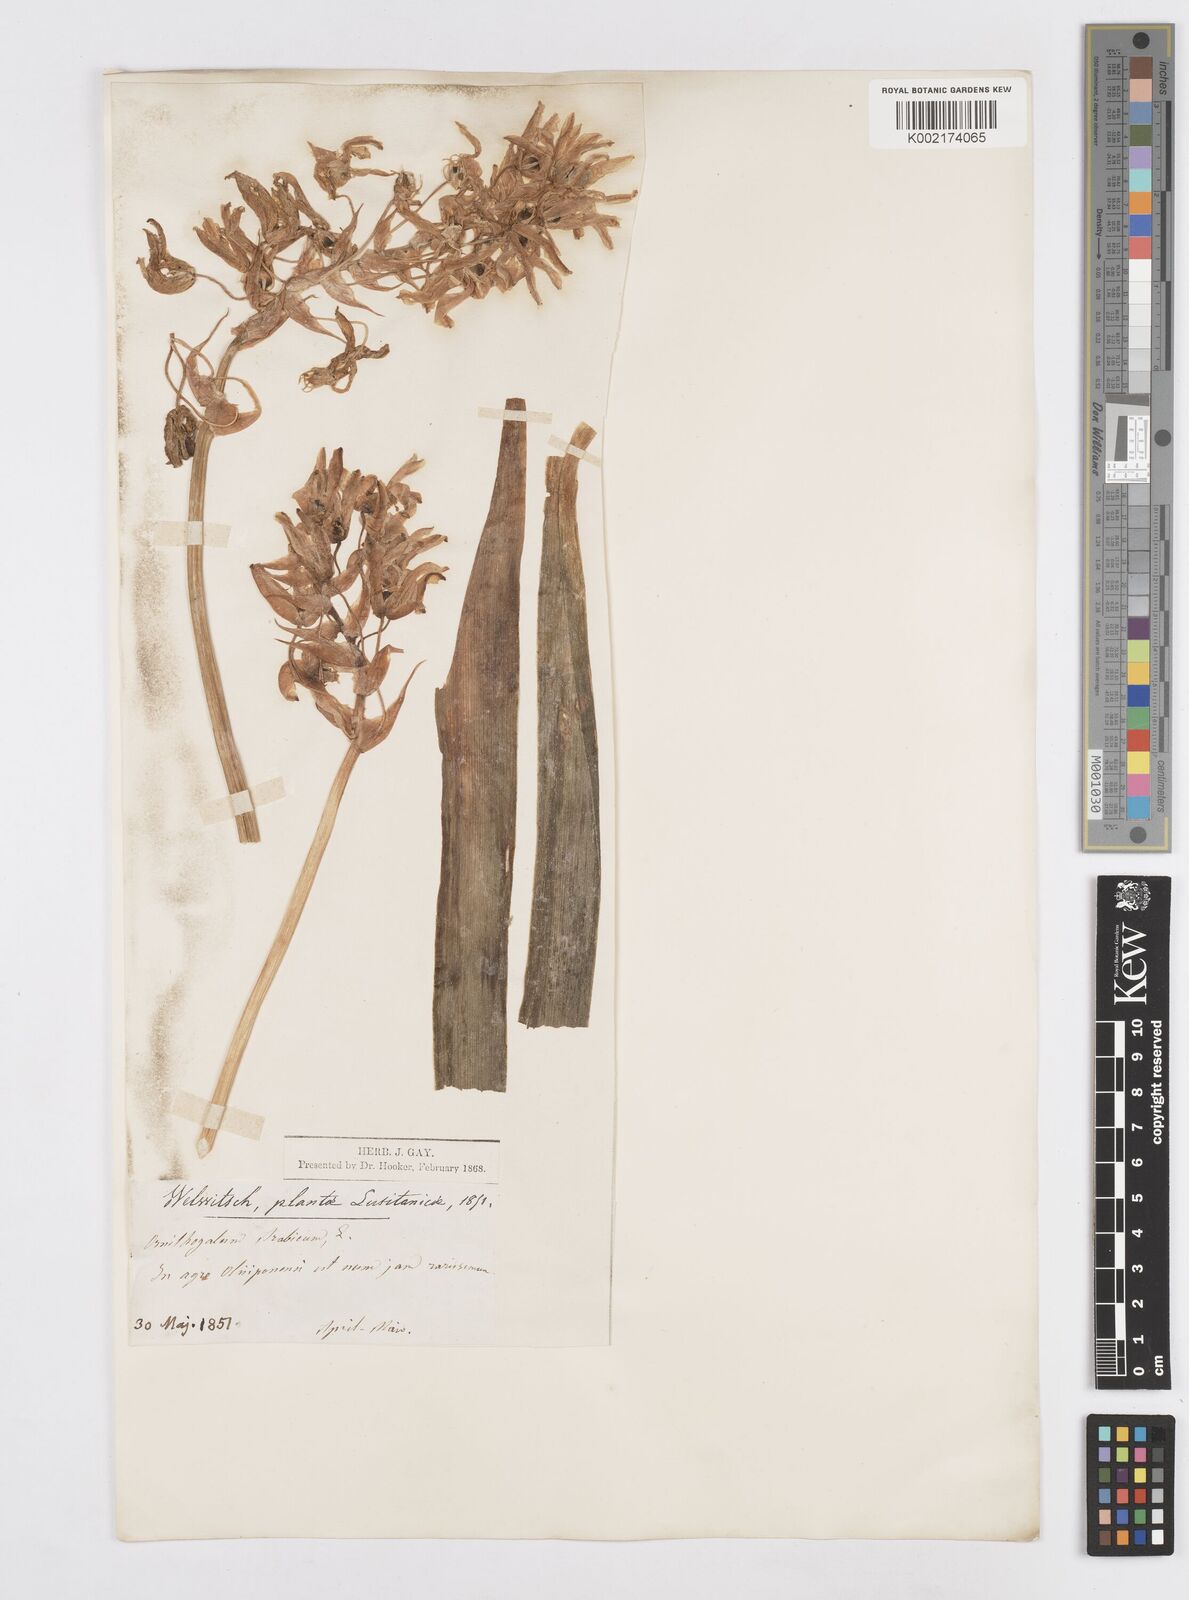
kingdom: Plantae
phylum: Tracheophyta
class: Liliopsida
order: Asparagales
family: Asparagaceae
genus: Ornithogalum
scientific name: Ornithogalum arabicum
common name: Arabian starflower
